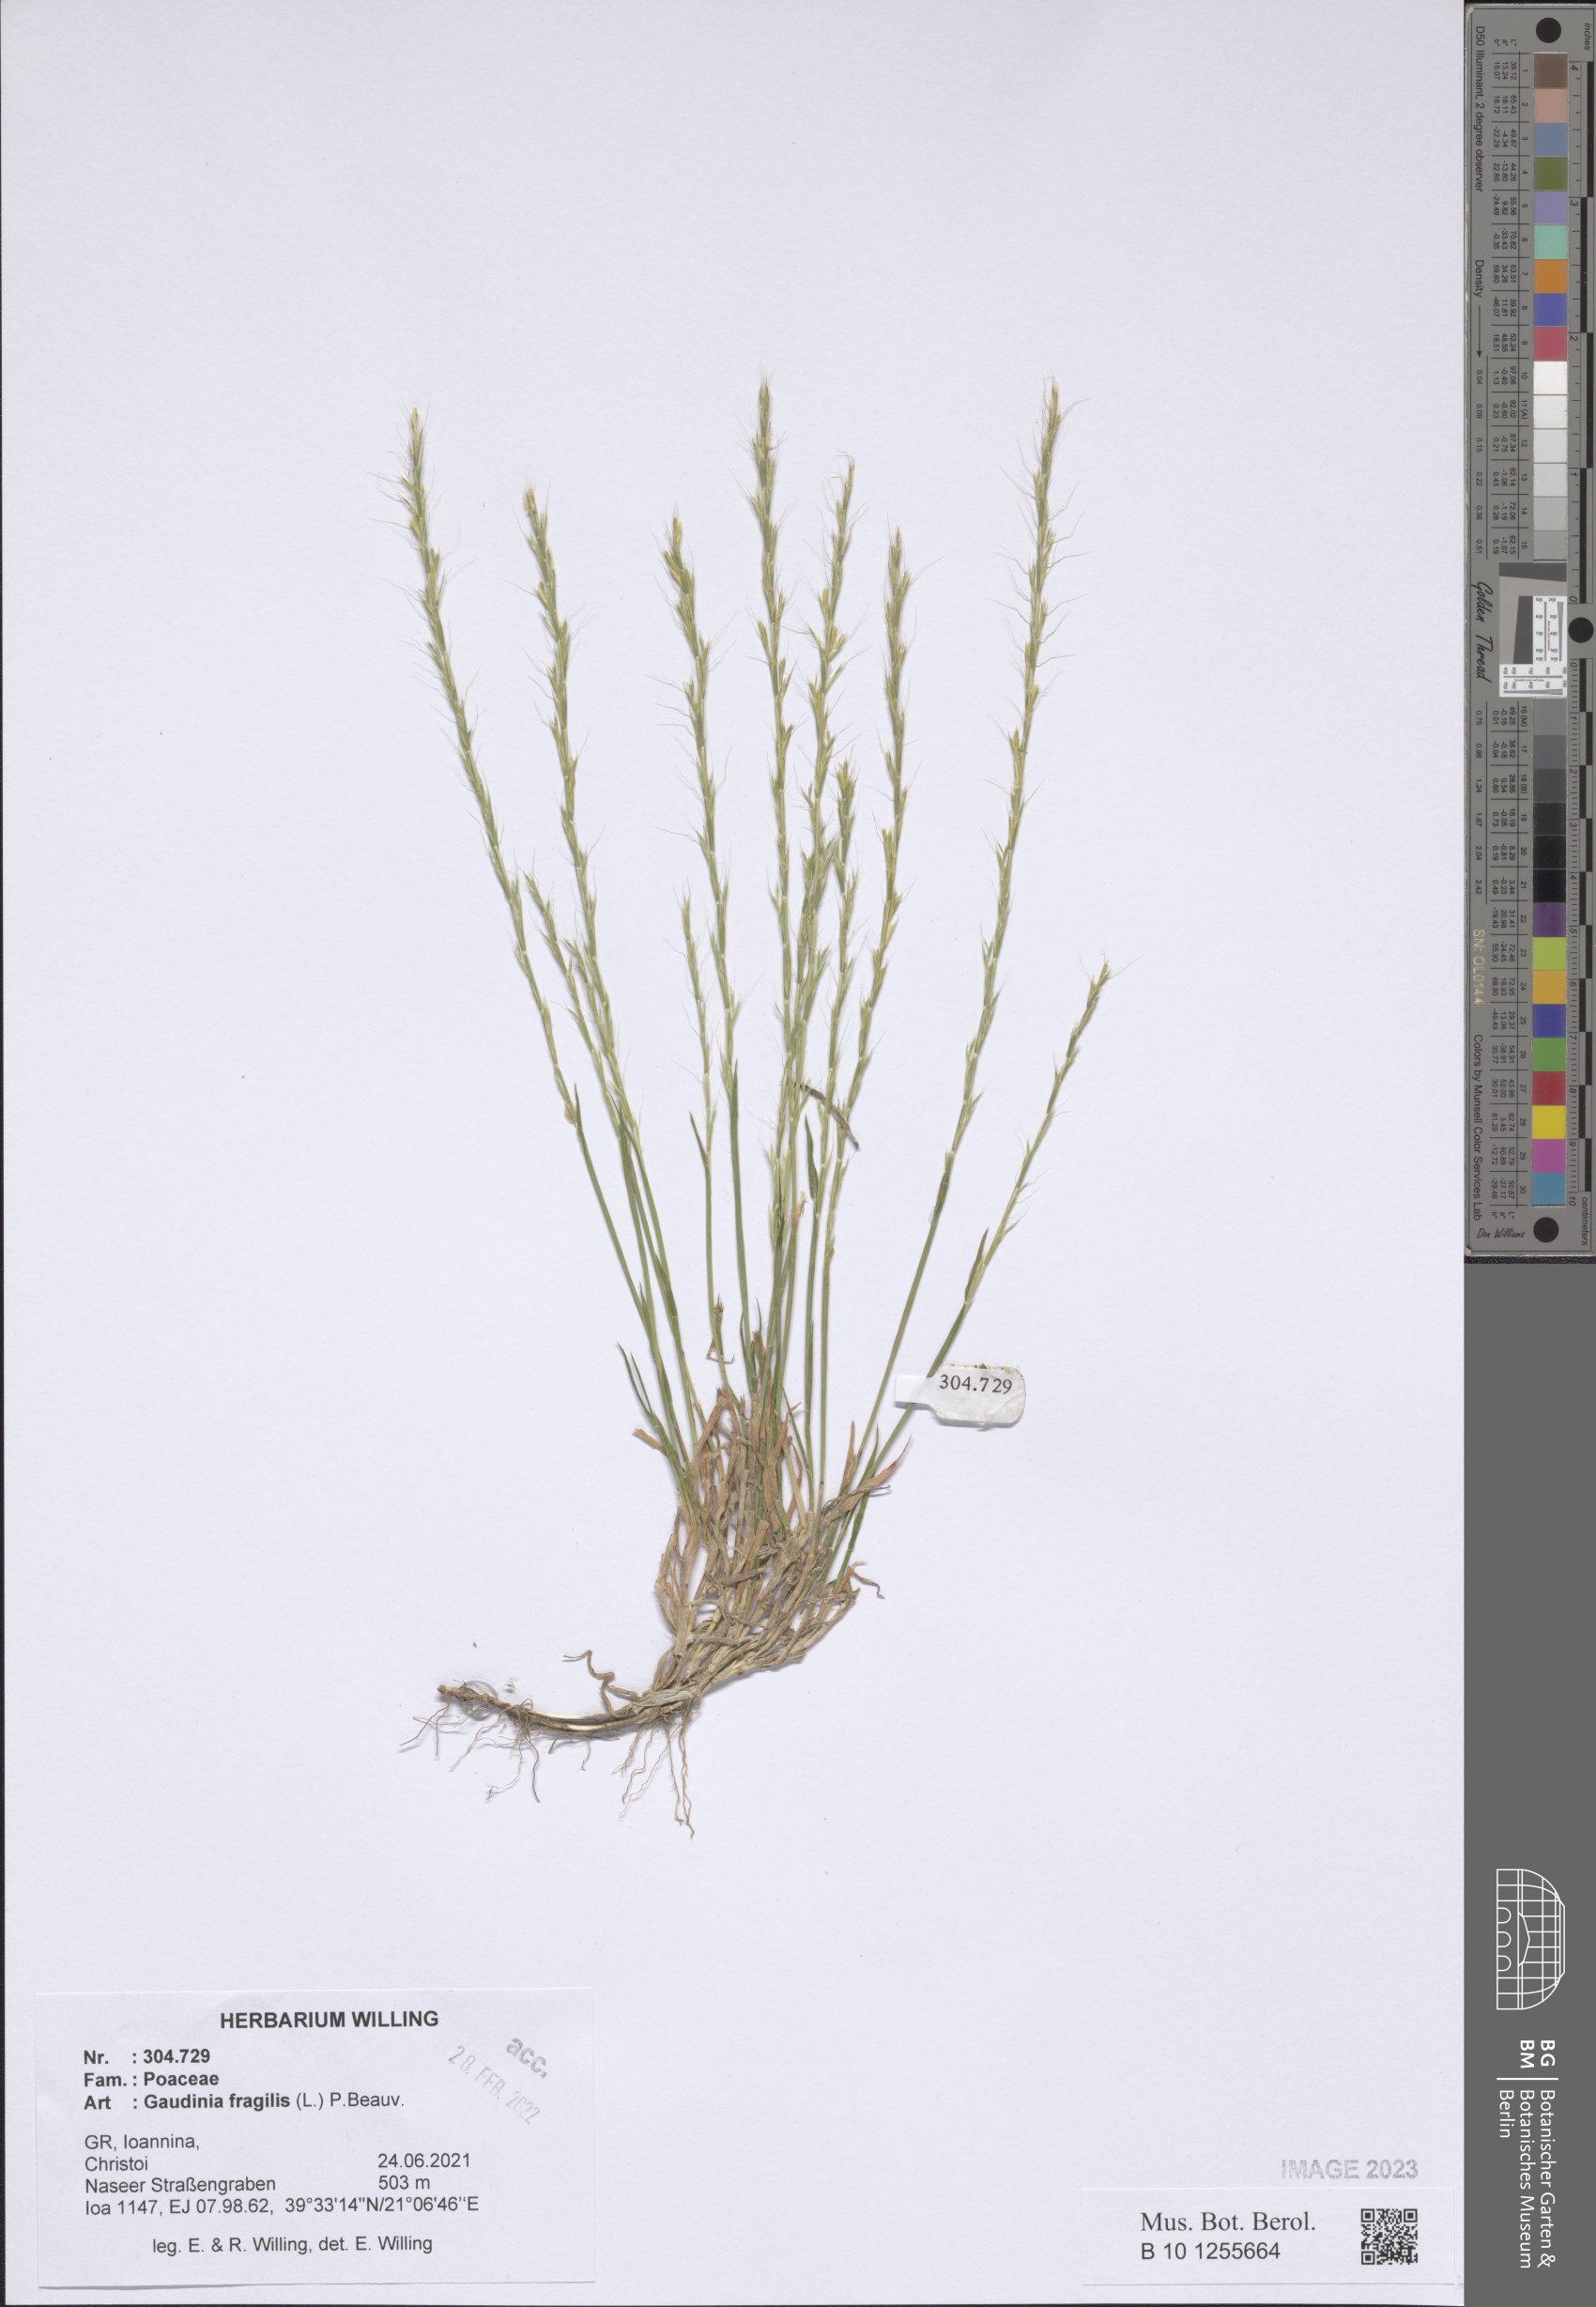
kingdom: Plantae
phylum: Tracheophyta
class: Liliopsida
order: Poales
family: Poaceae
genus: Gaudinia
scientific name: Gaudinia fragilis
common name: French oat-grass
